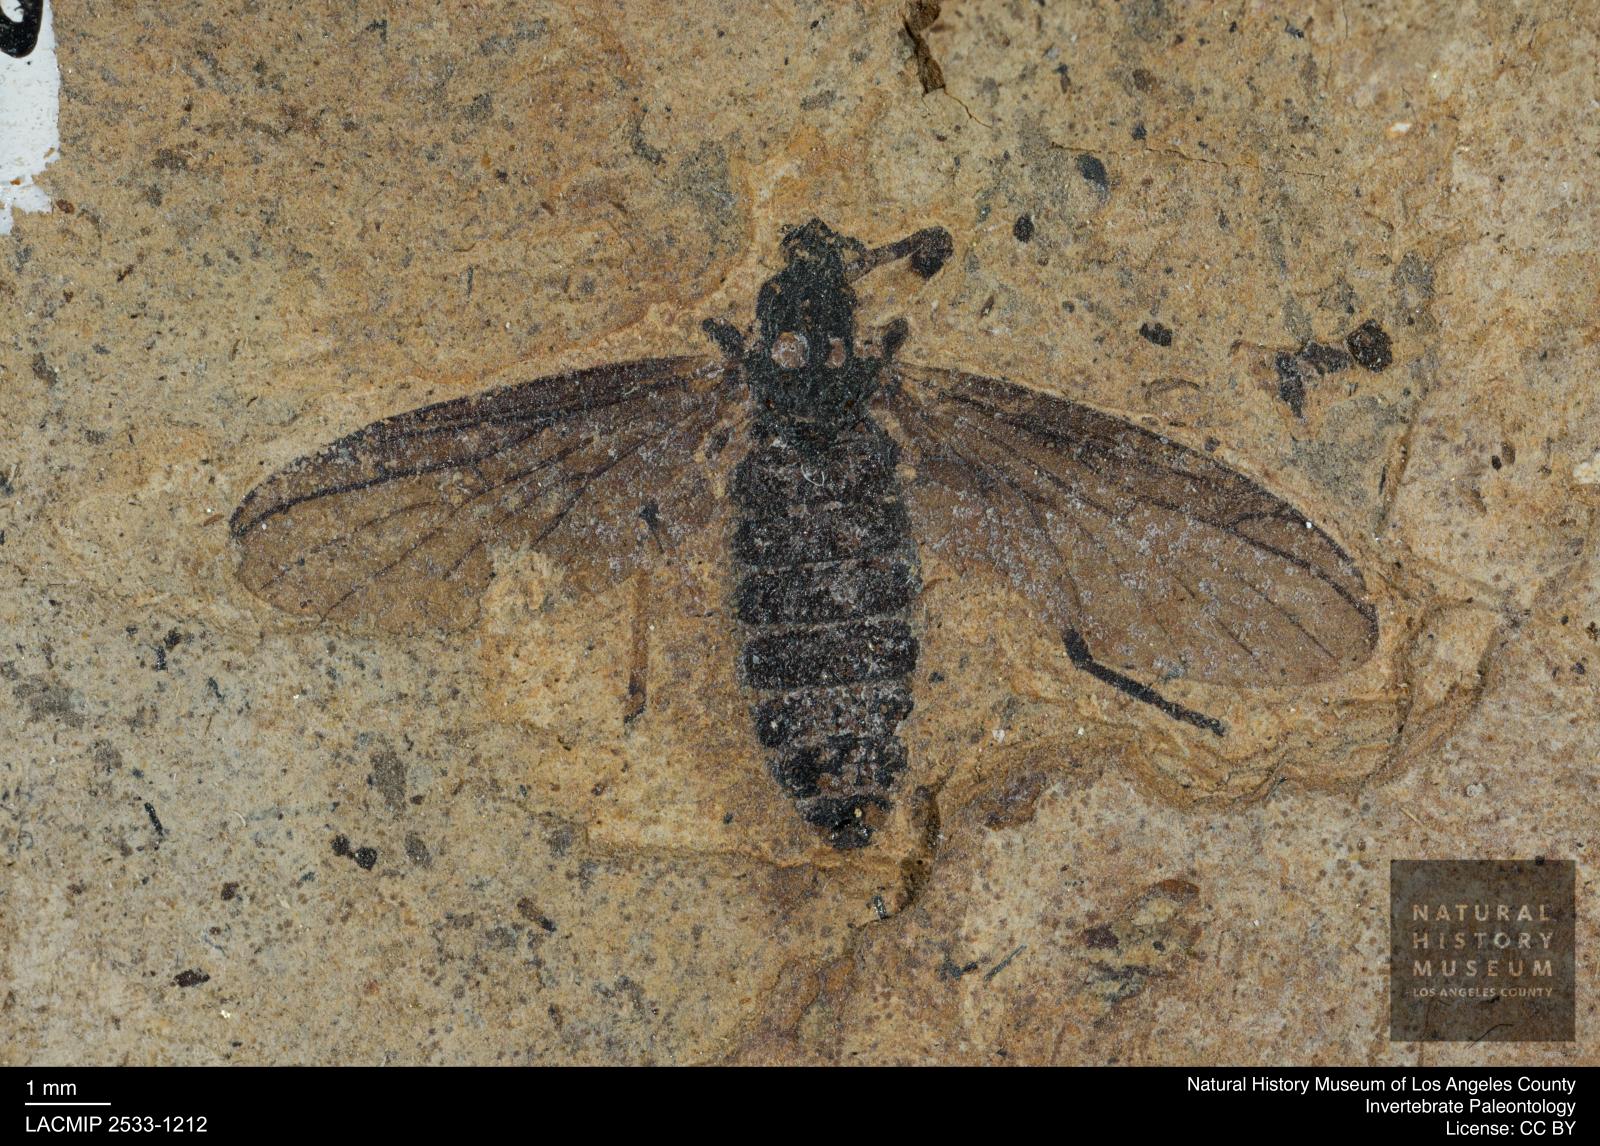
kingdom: Animalia
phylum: Arthropoda
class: Insecta
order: Diptera
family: Bibionidae
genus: Plecia
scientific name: Plecia hypogaea
